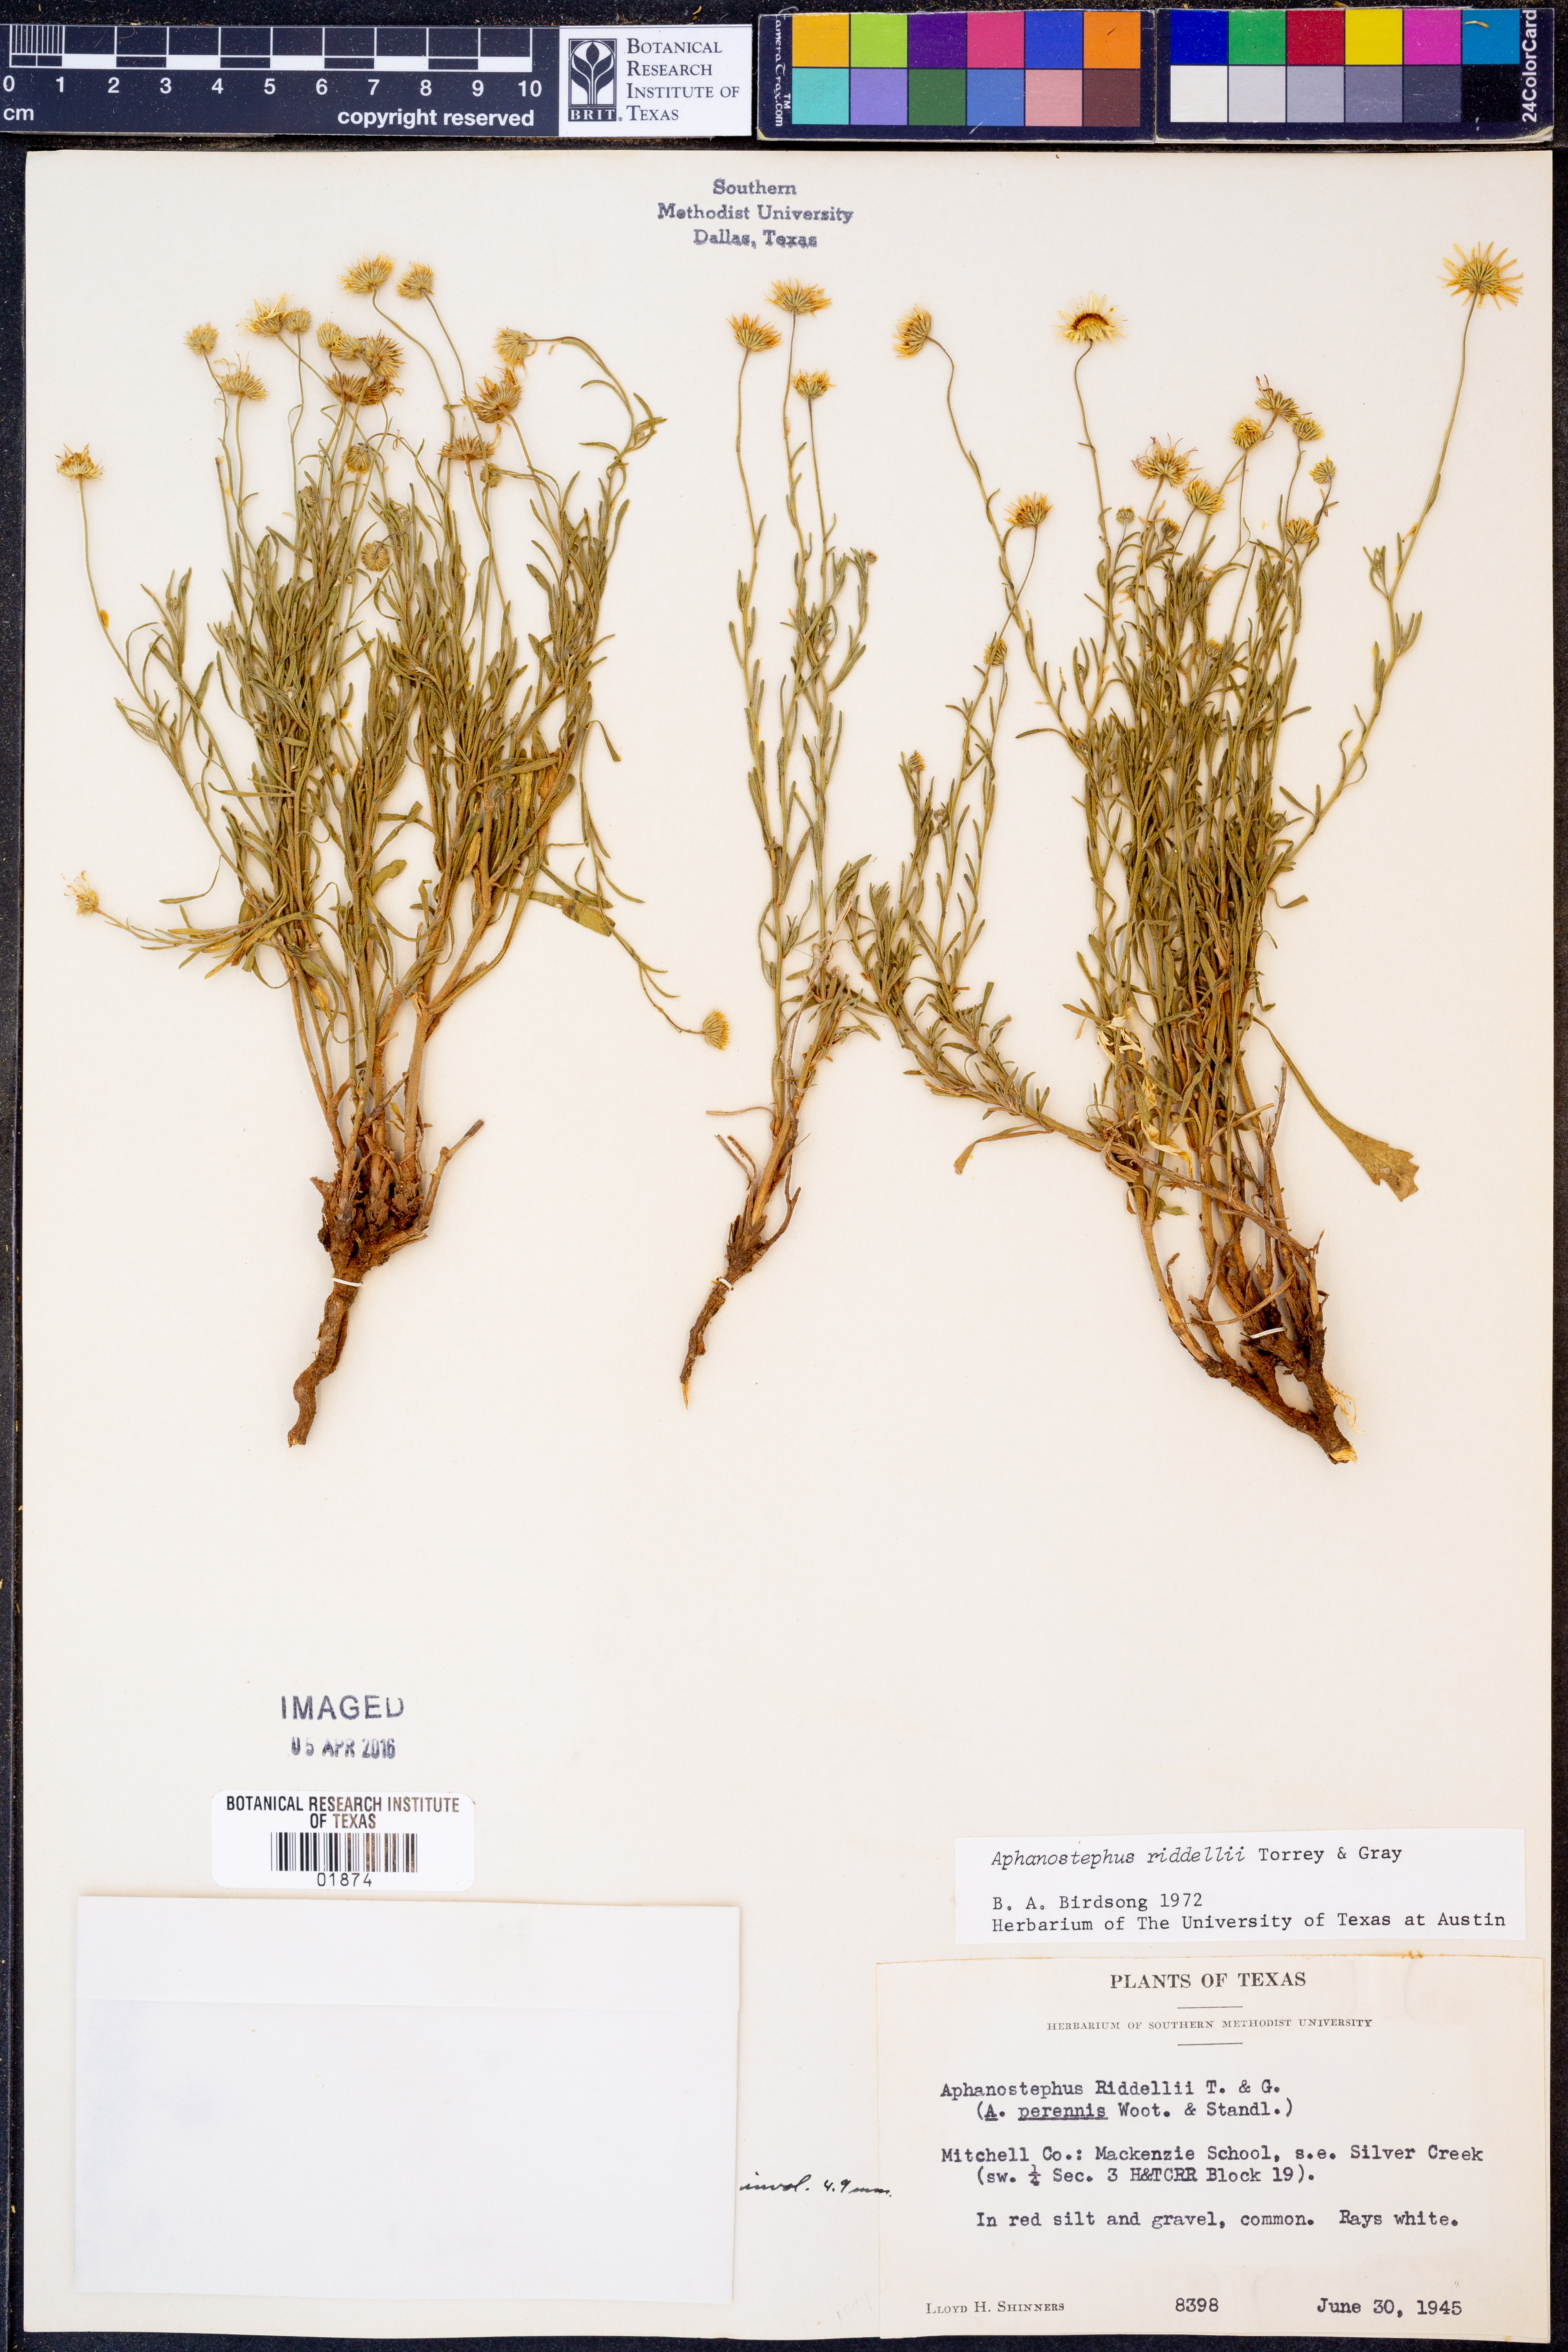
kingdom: Plantae
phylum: Tracheophyta
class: Magnoliopsida
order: Asterales
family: Asteraceae
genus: Aphanostephus
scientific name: Aphanostephus riddellii
